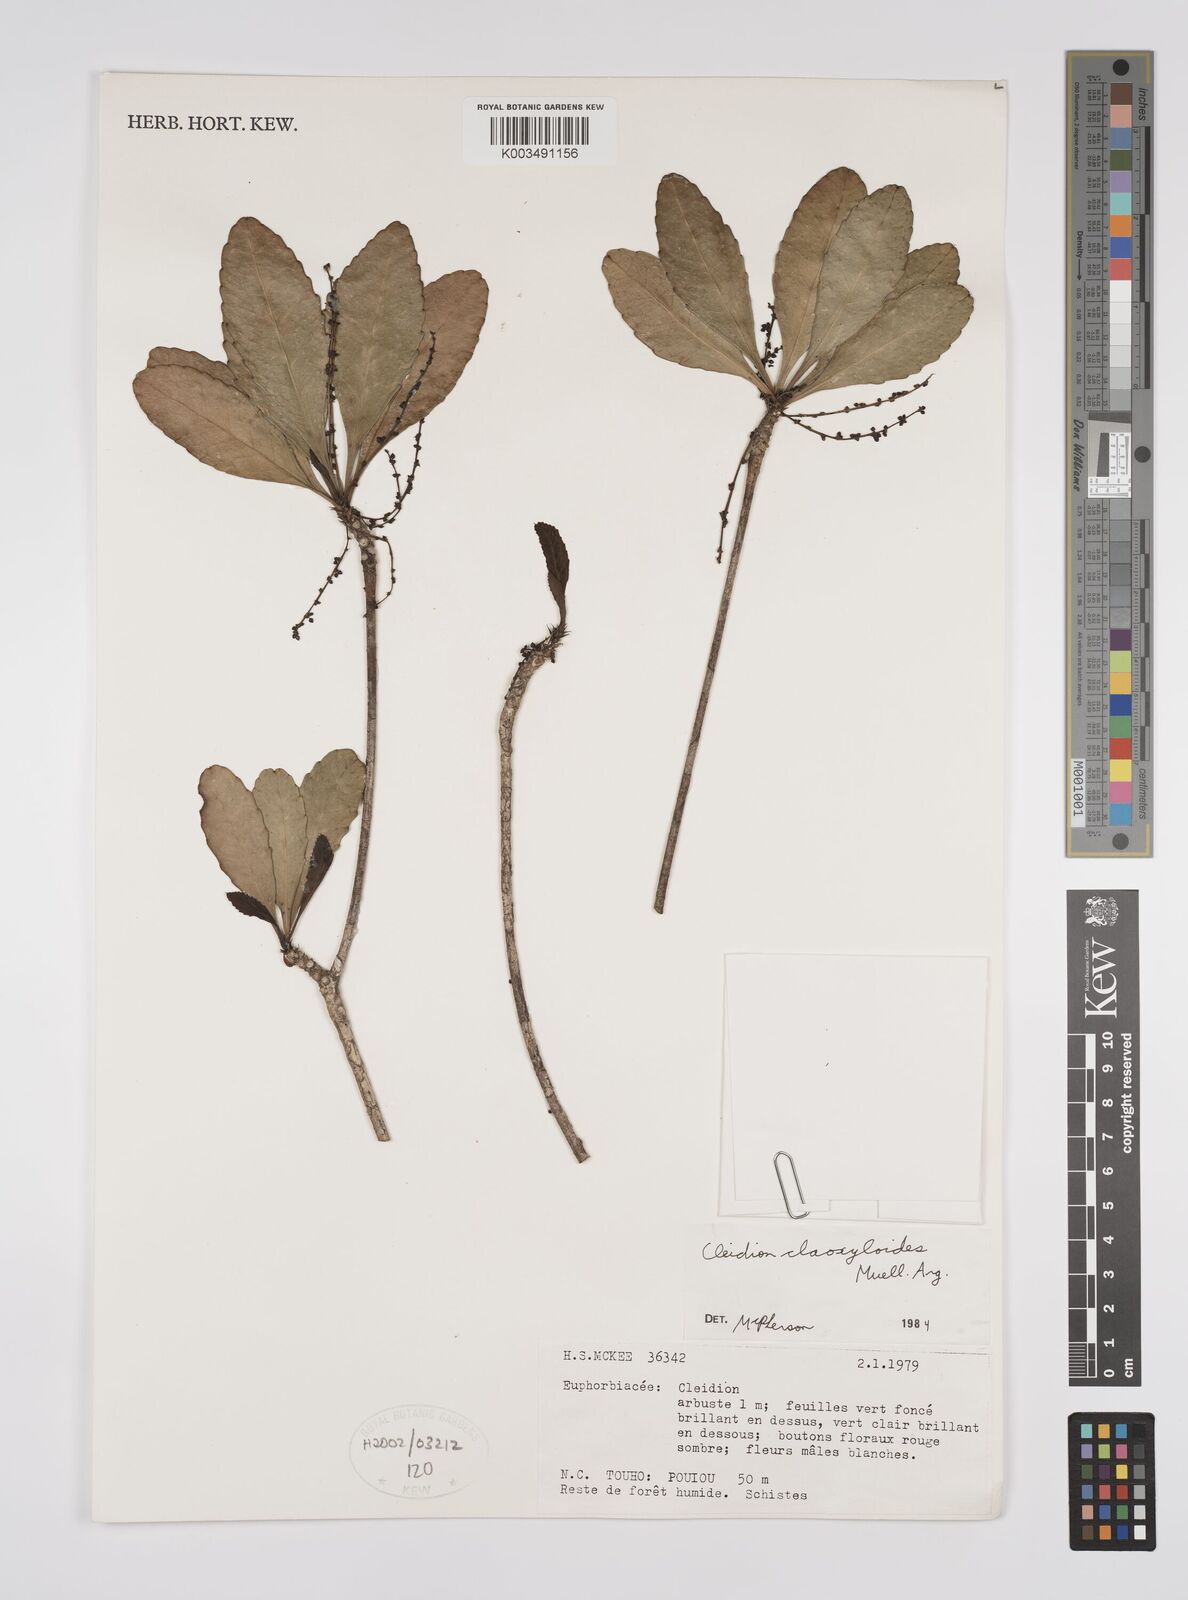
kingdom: Plantae
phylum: Tracheophyta
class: Magnoliopsida
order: Malpighiales
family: Euphorbiaceae
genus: Cleidion
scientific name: Cleidion claoxyloides
